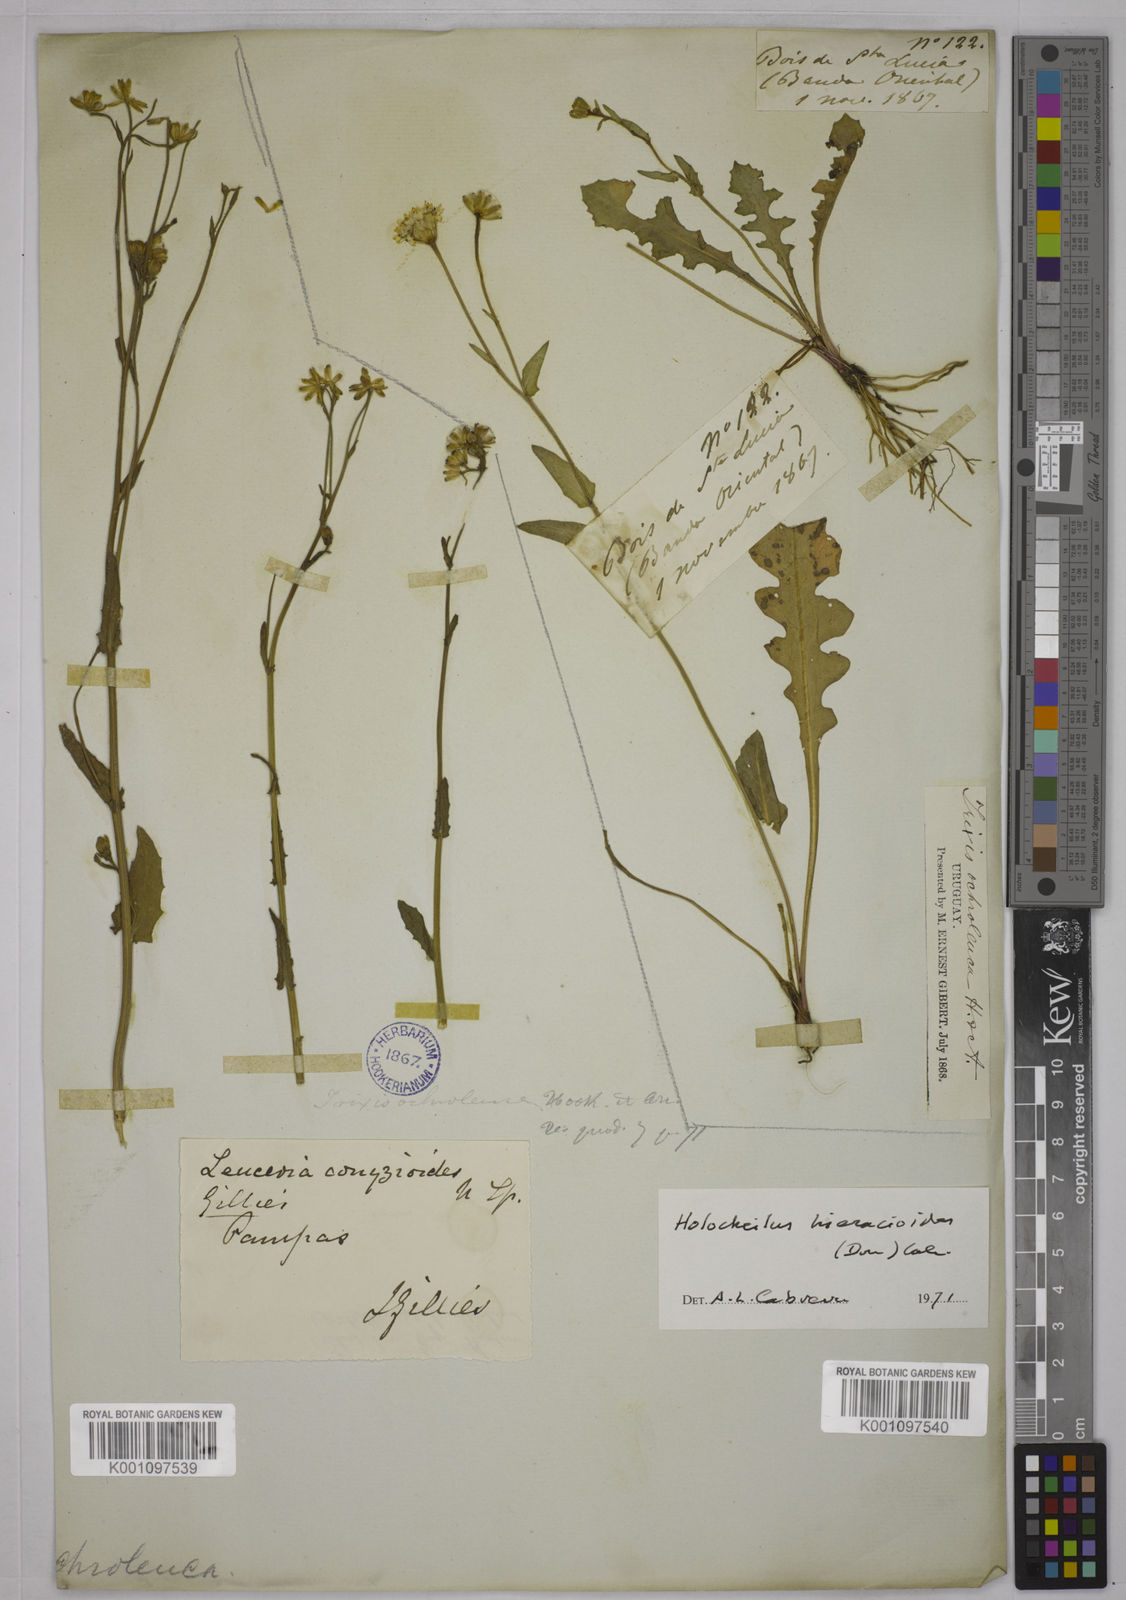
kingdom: Plantae
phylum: Tracheophyta
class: Magnoliopsida
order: Asterales
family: Asteraceae
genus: Holocheilus
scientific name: Holocheilus hieracioides
